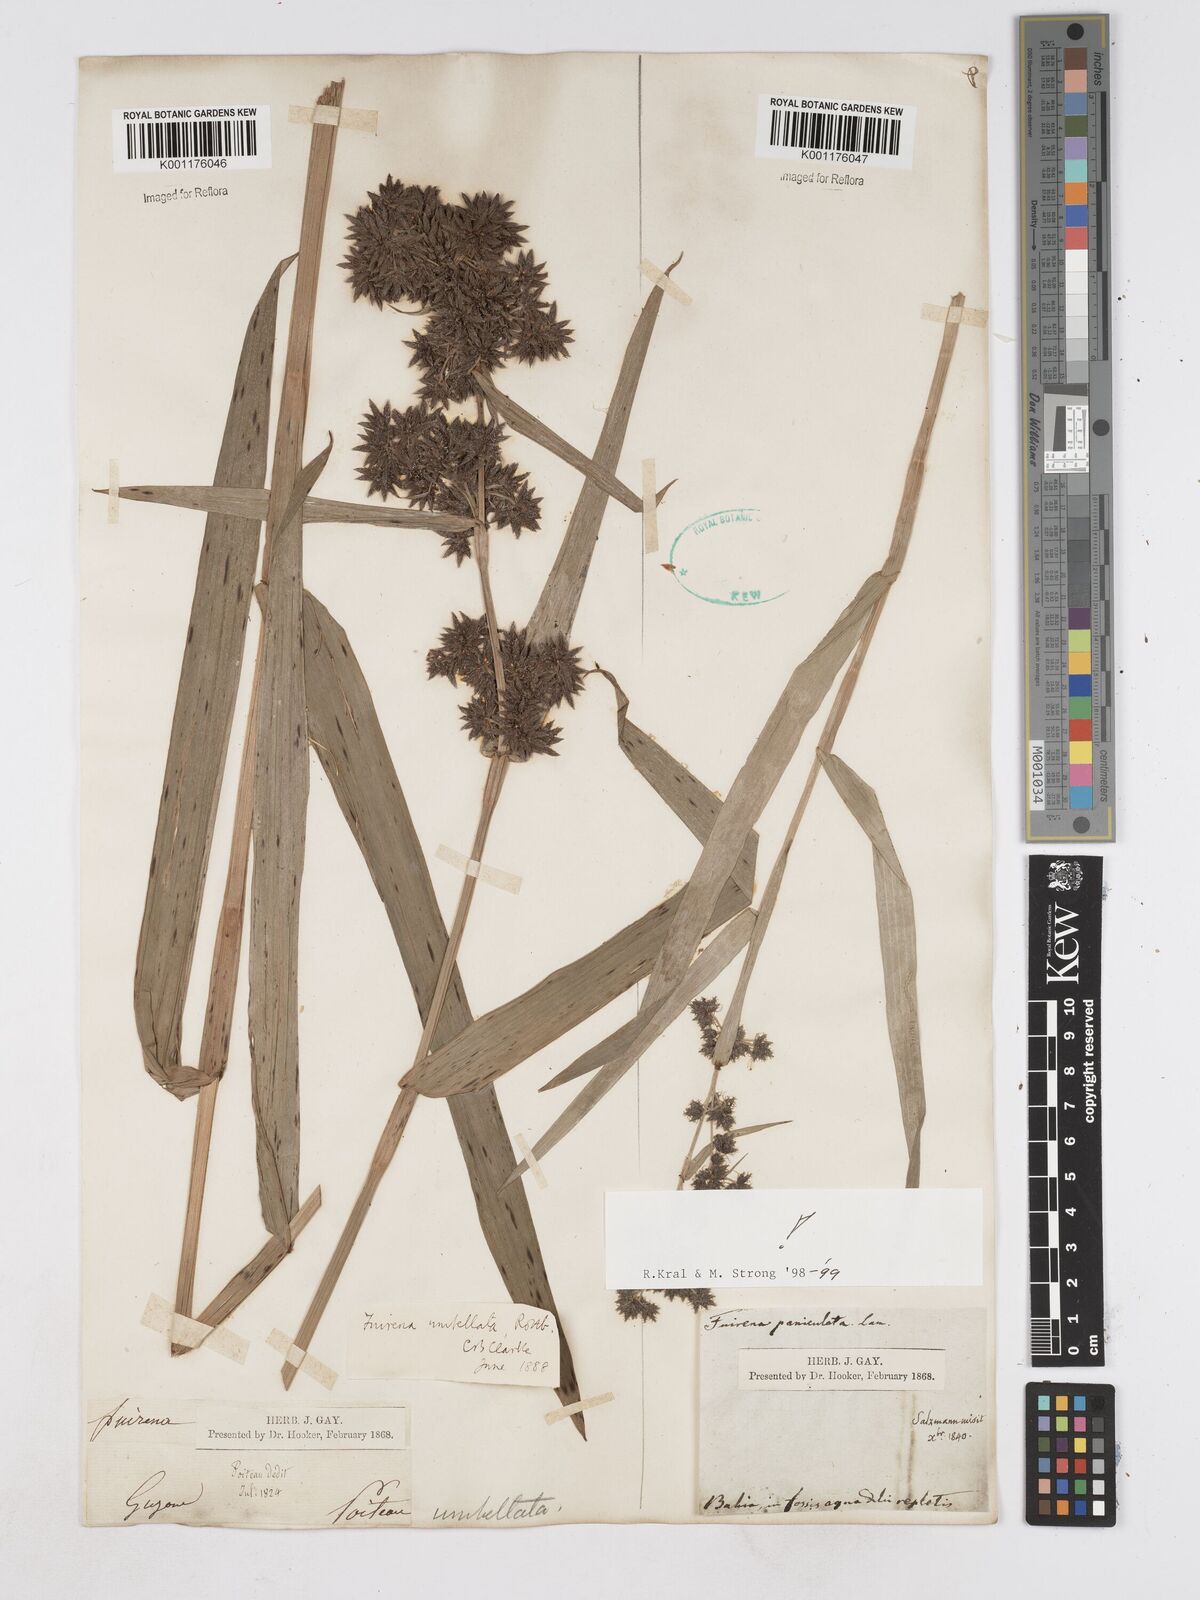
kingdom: Plantae
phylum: Tracheophyta
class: Liliopsida
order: Poales
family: Cyperaceae
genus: Fuirena
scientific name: Fuirena umbellata
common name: Yefen
